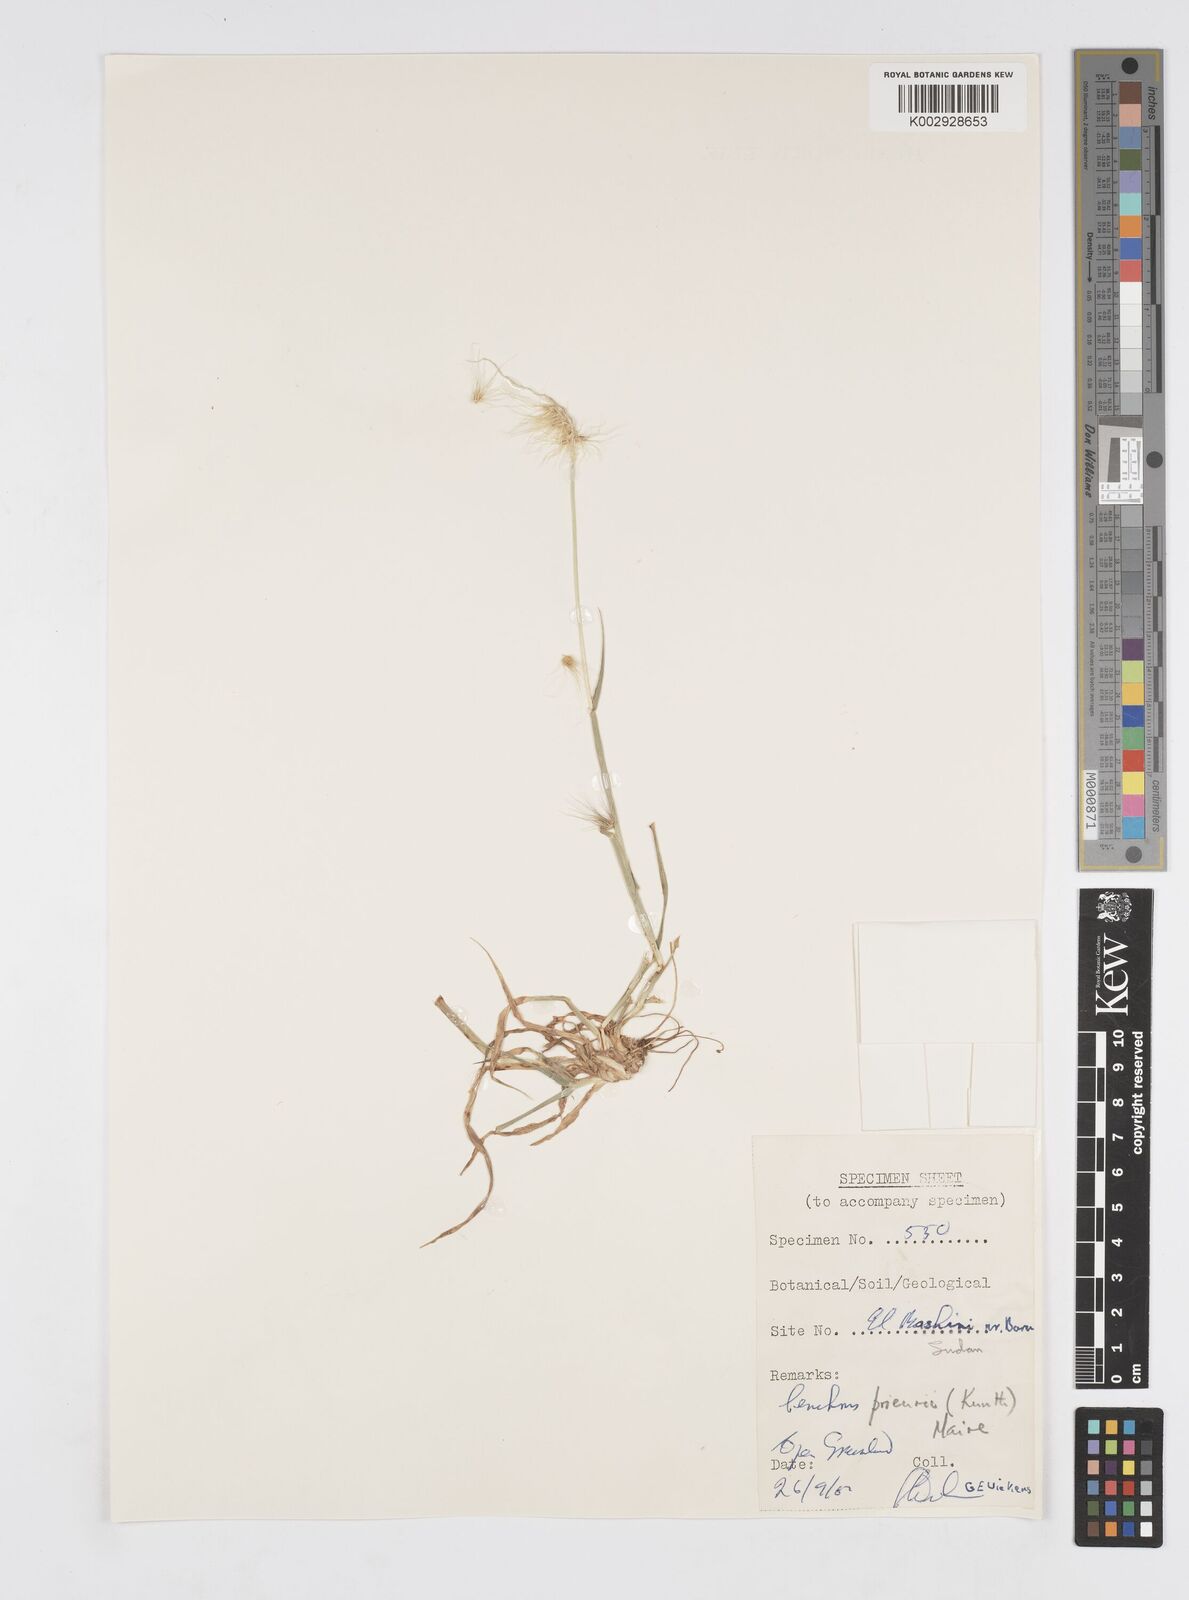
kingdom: Plantae
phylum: Tracheophyta
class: Liliopsida
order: Poales
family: Poaceae
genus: Cenchrus
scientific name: Cenchrus prieurii
